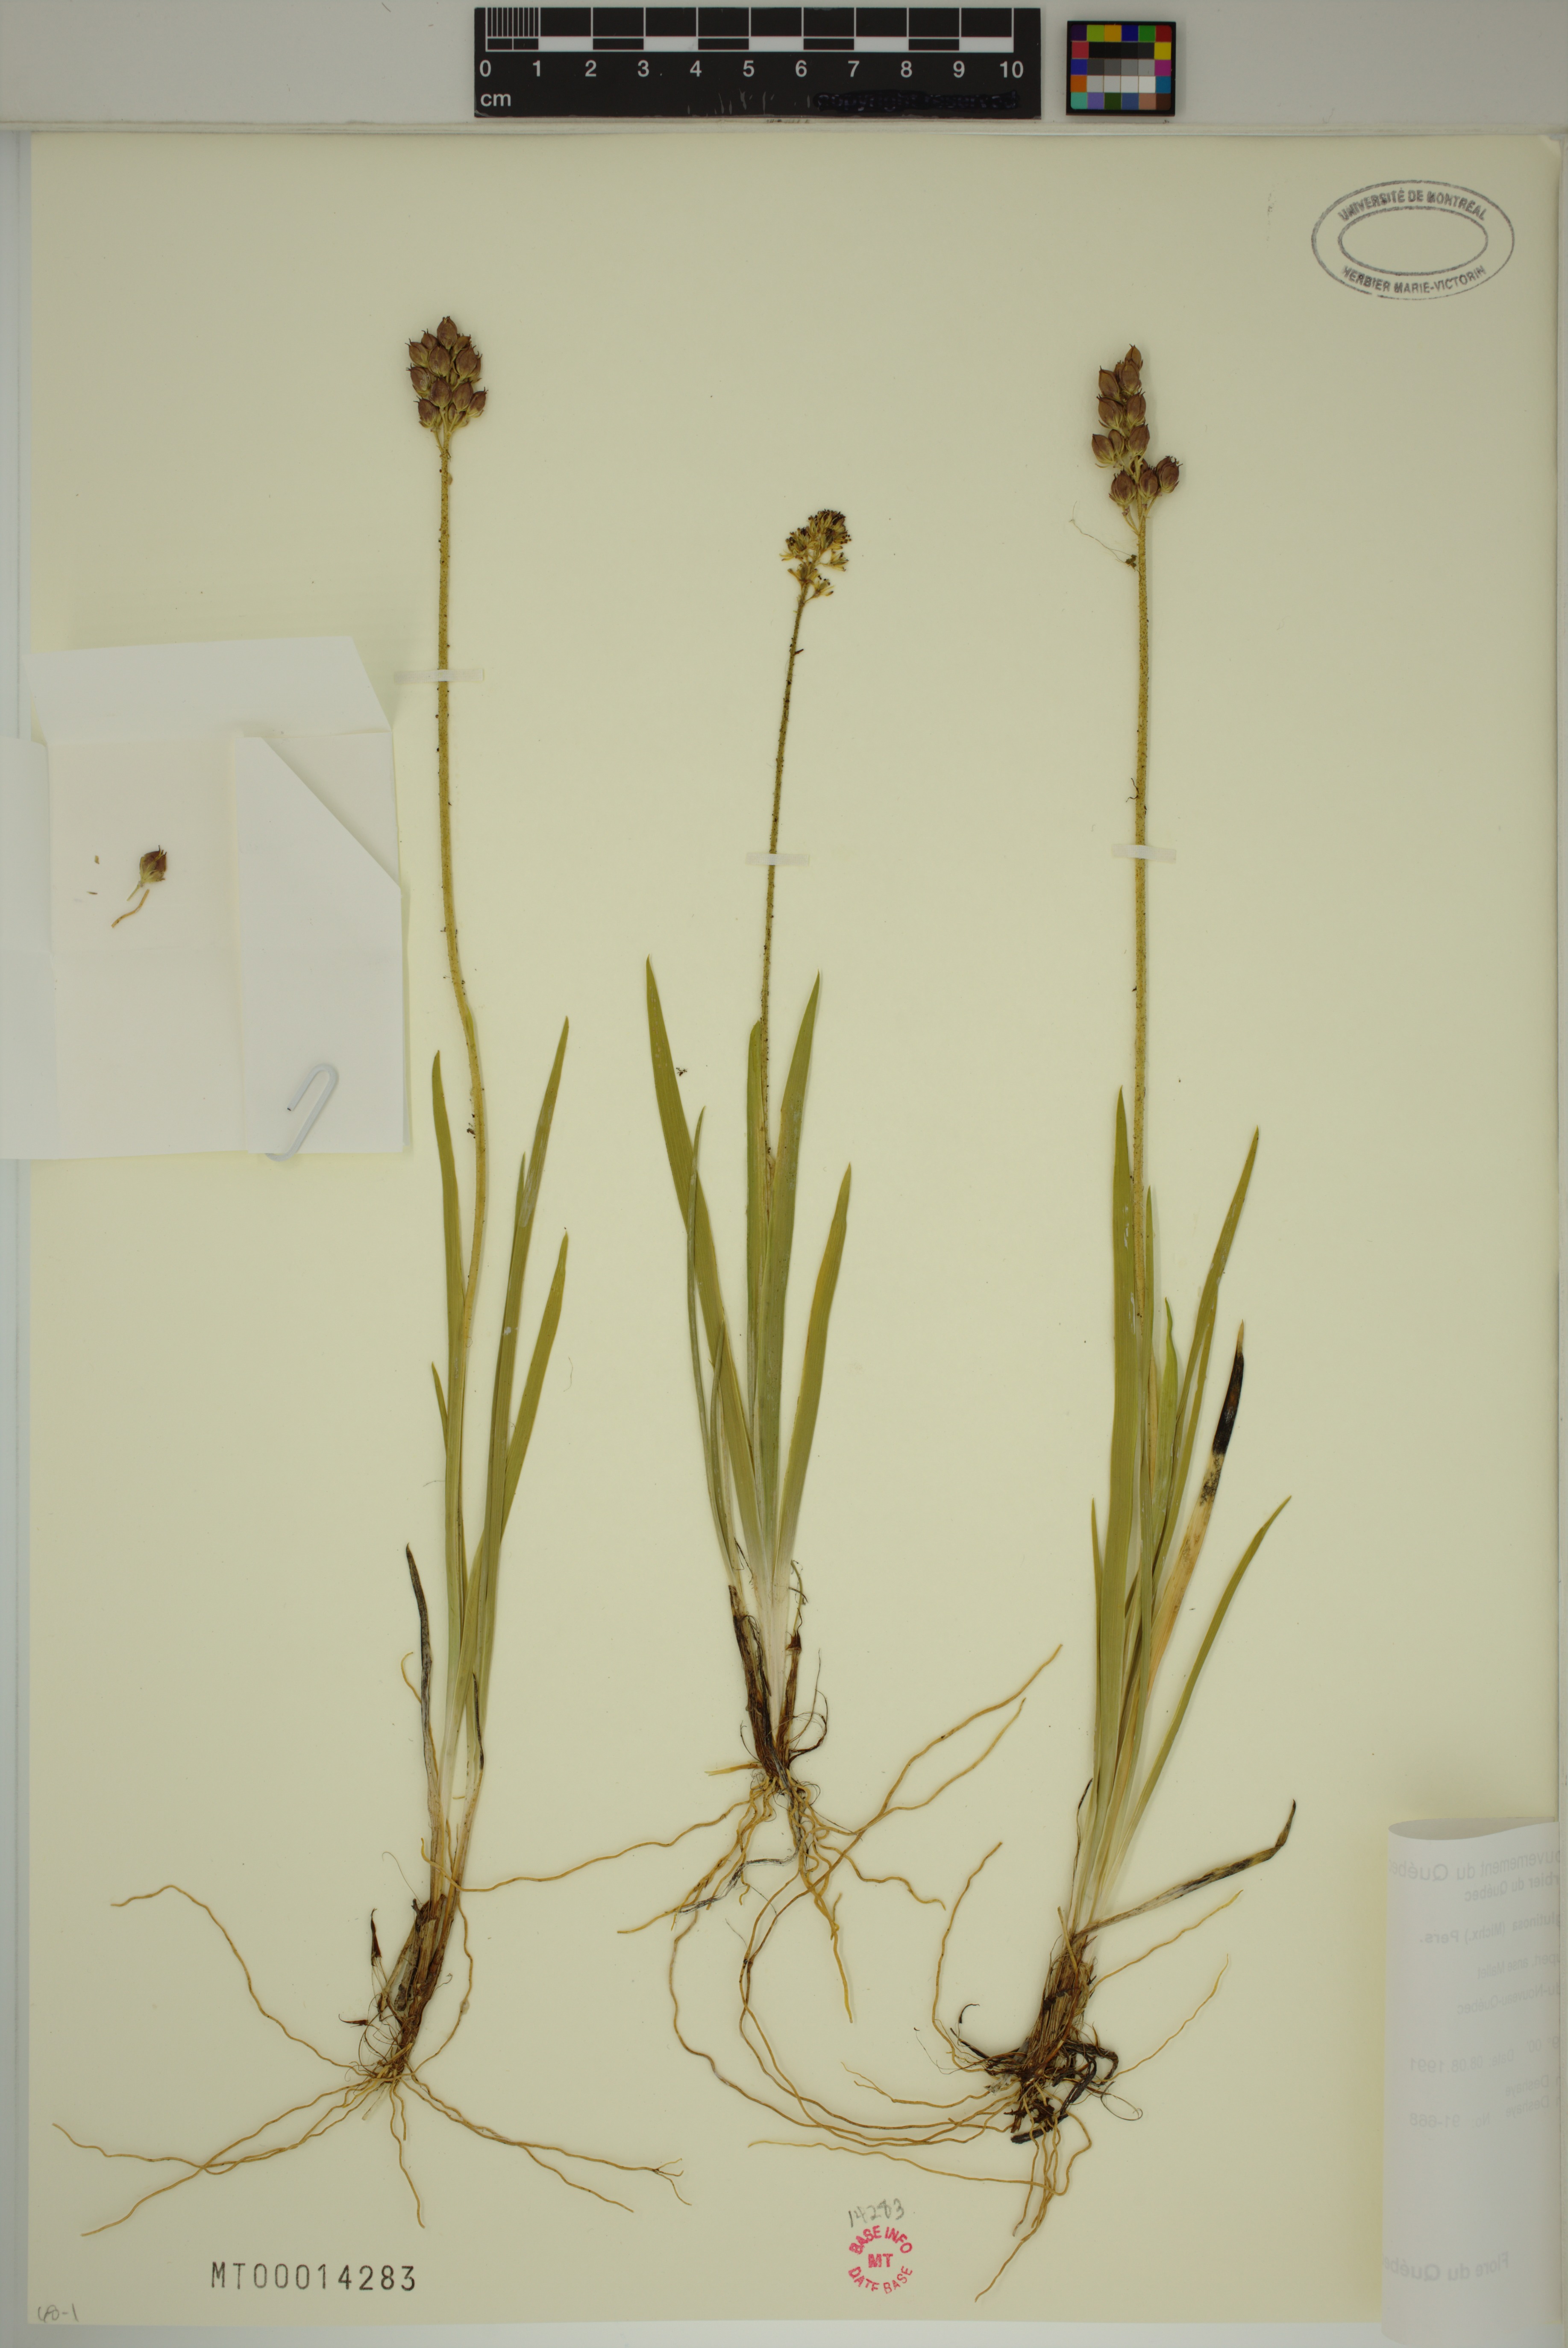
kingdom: Plantae
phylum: Tracheophyta
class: Liliopsida
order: Alismatales
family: Tofieldiaceae
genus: Triantha
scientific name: Triantha glutinosa
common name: Glutinous tofieldia
